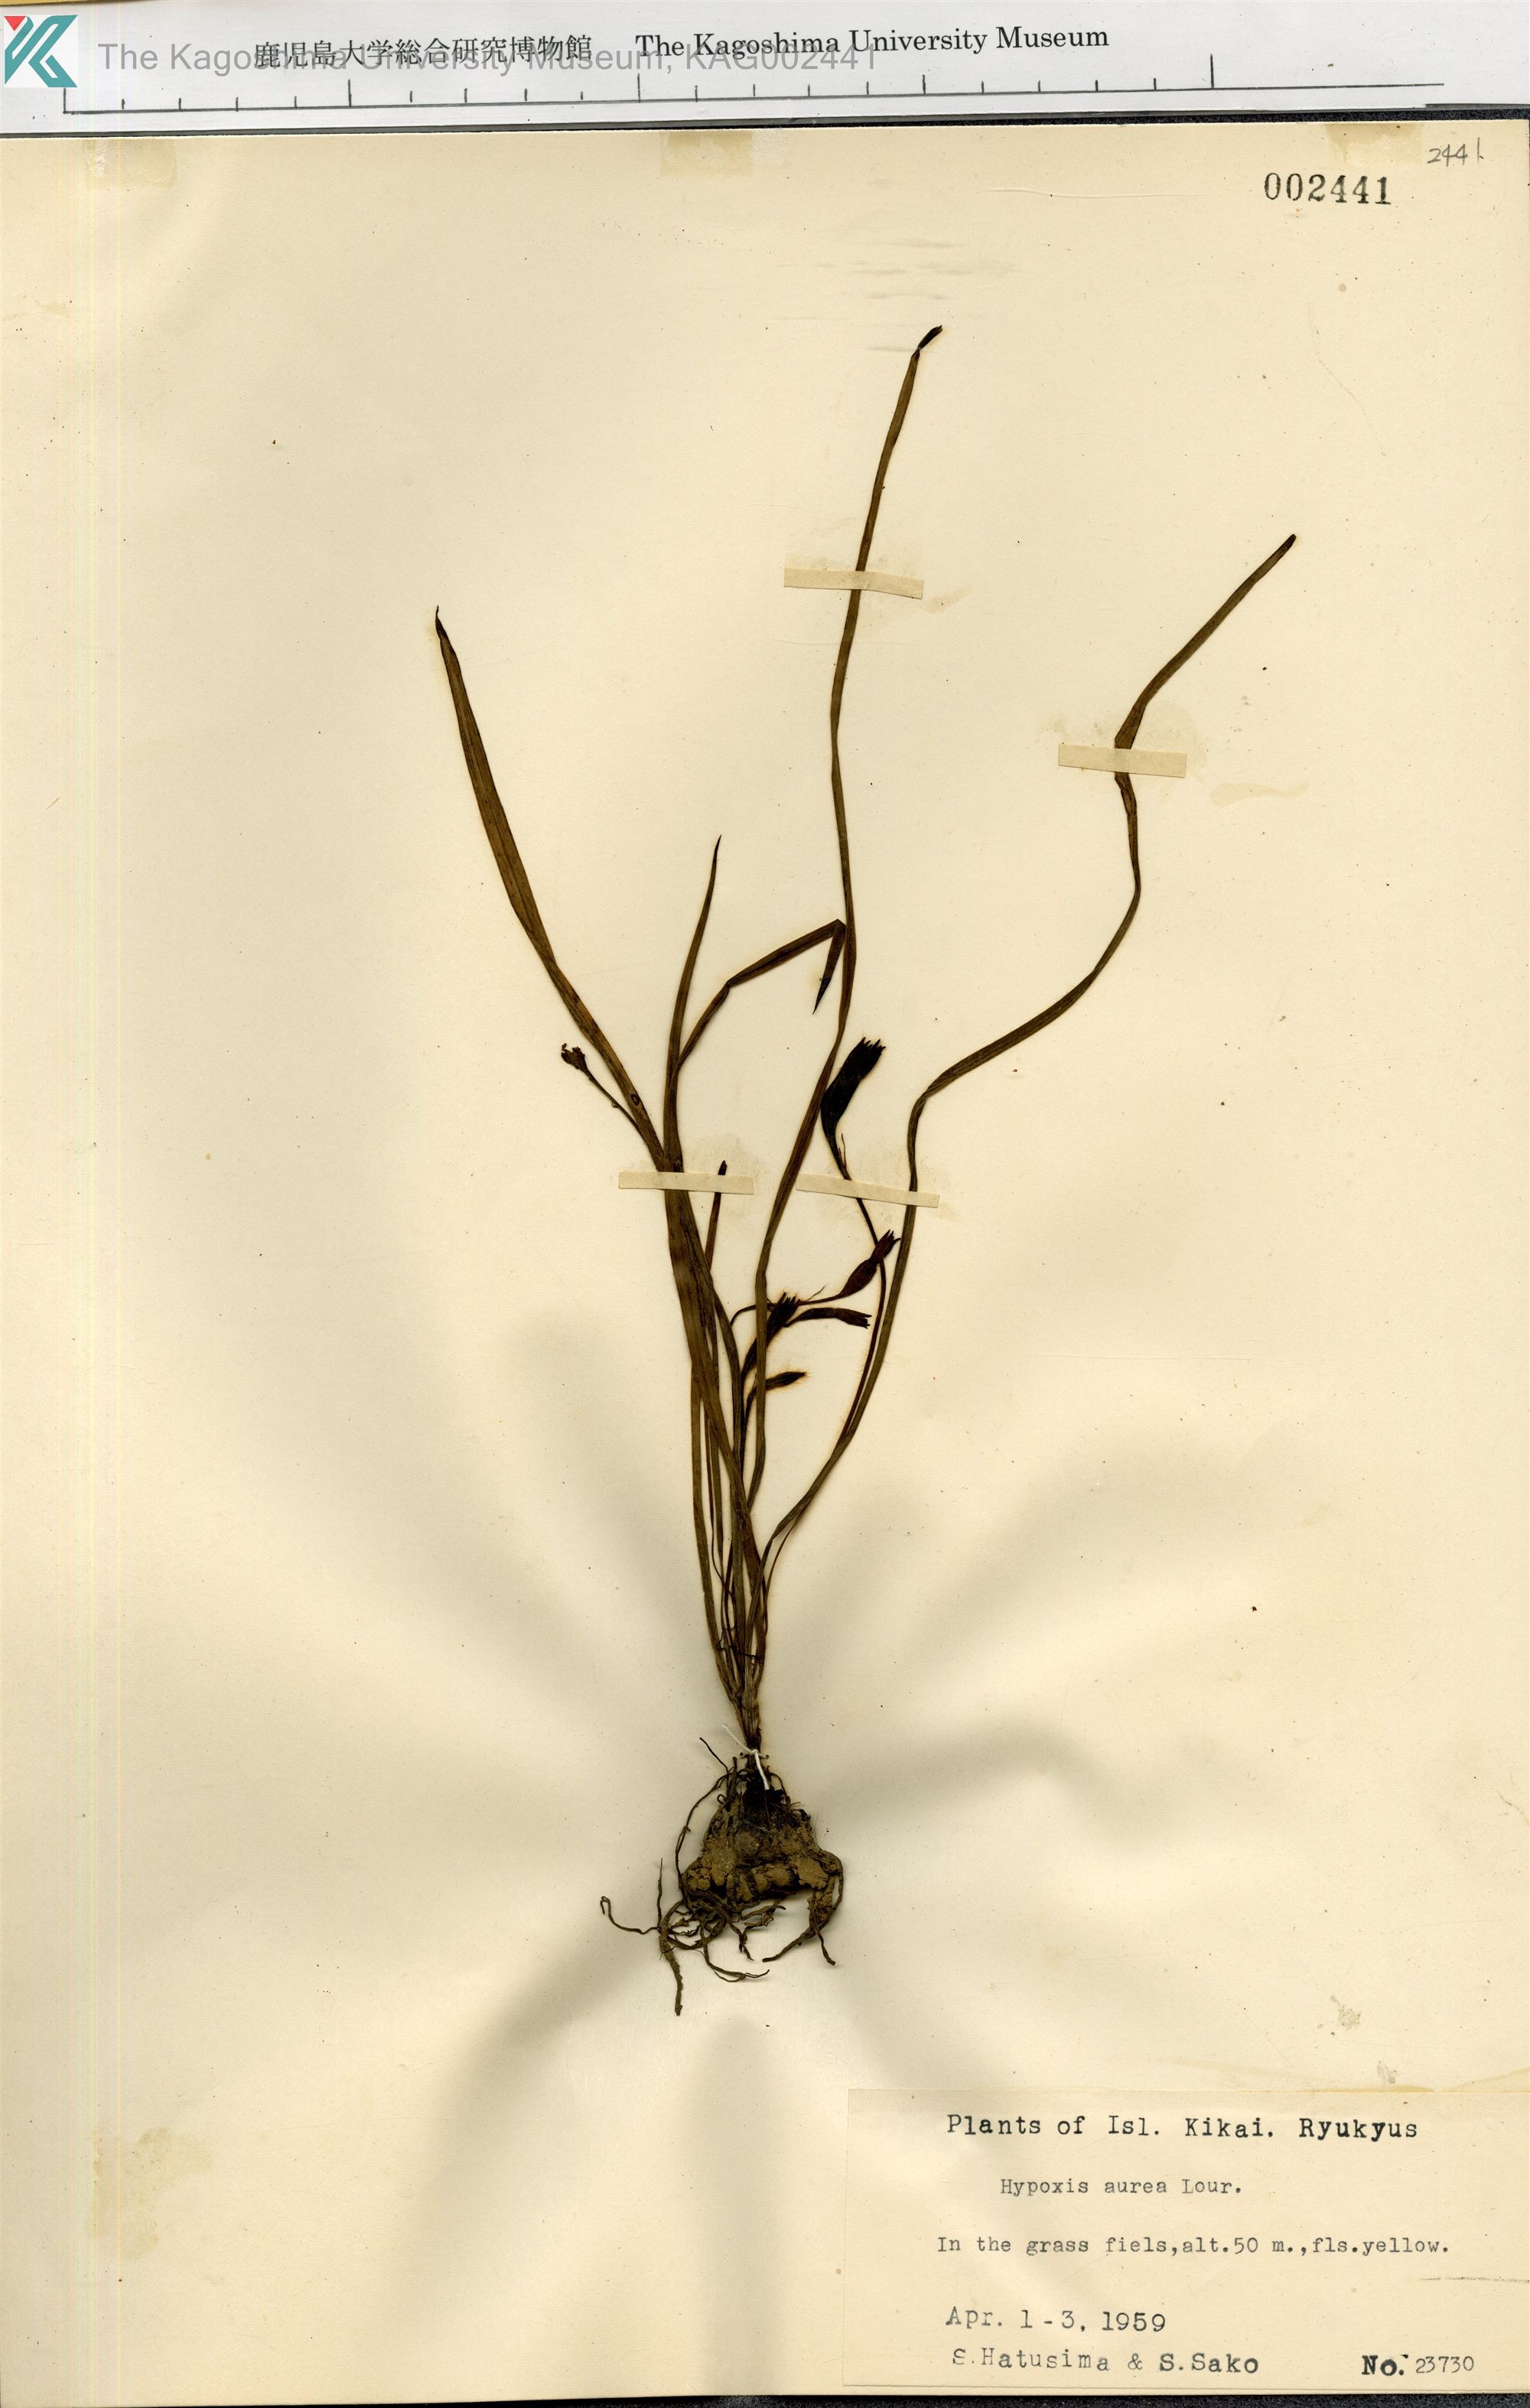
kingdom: Plantae
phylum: Tracheophyta
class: Liliopsida
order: Asparagales
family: Hypoxidaceae
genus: Hypoxis
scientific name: Hypoxis aurea
